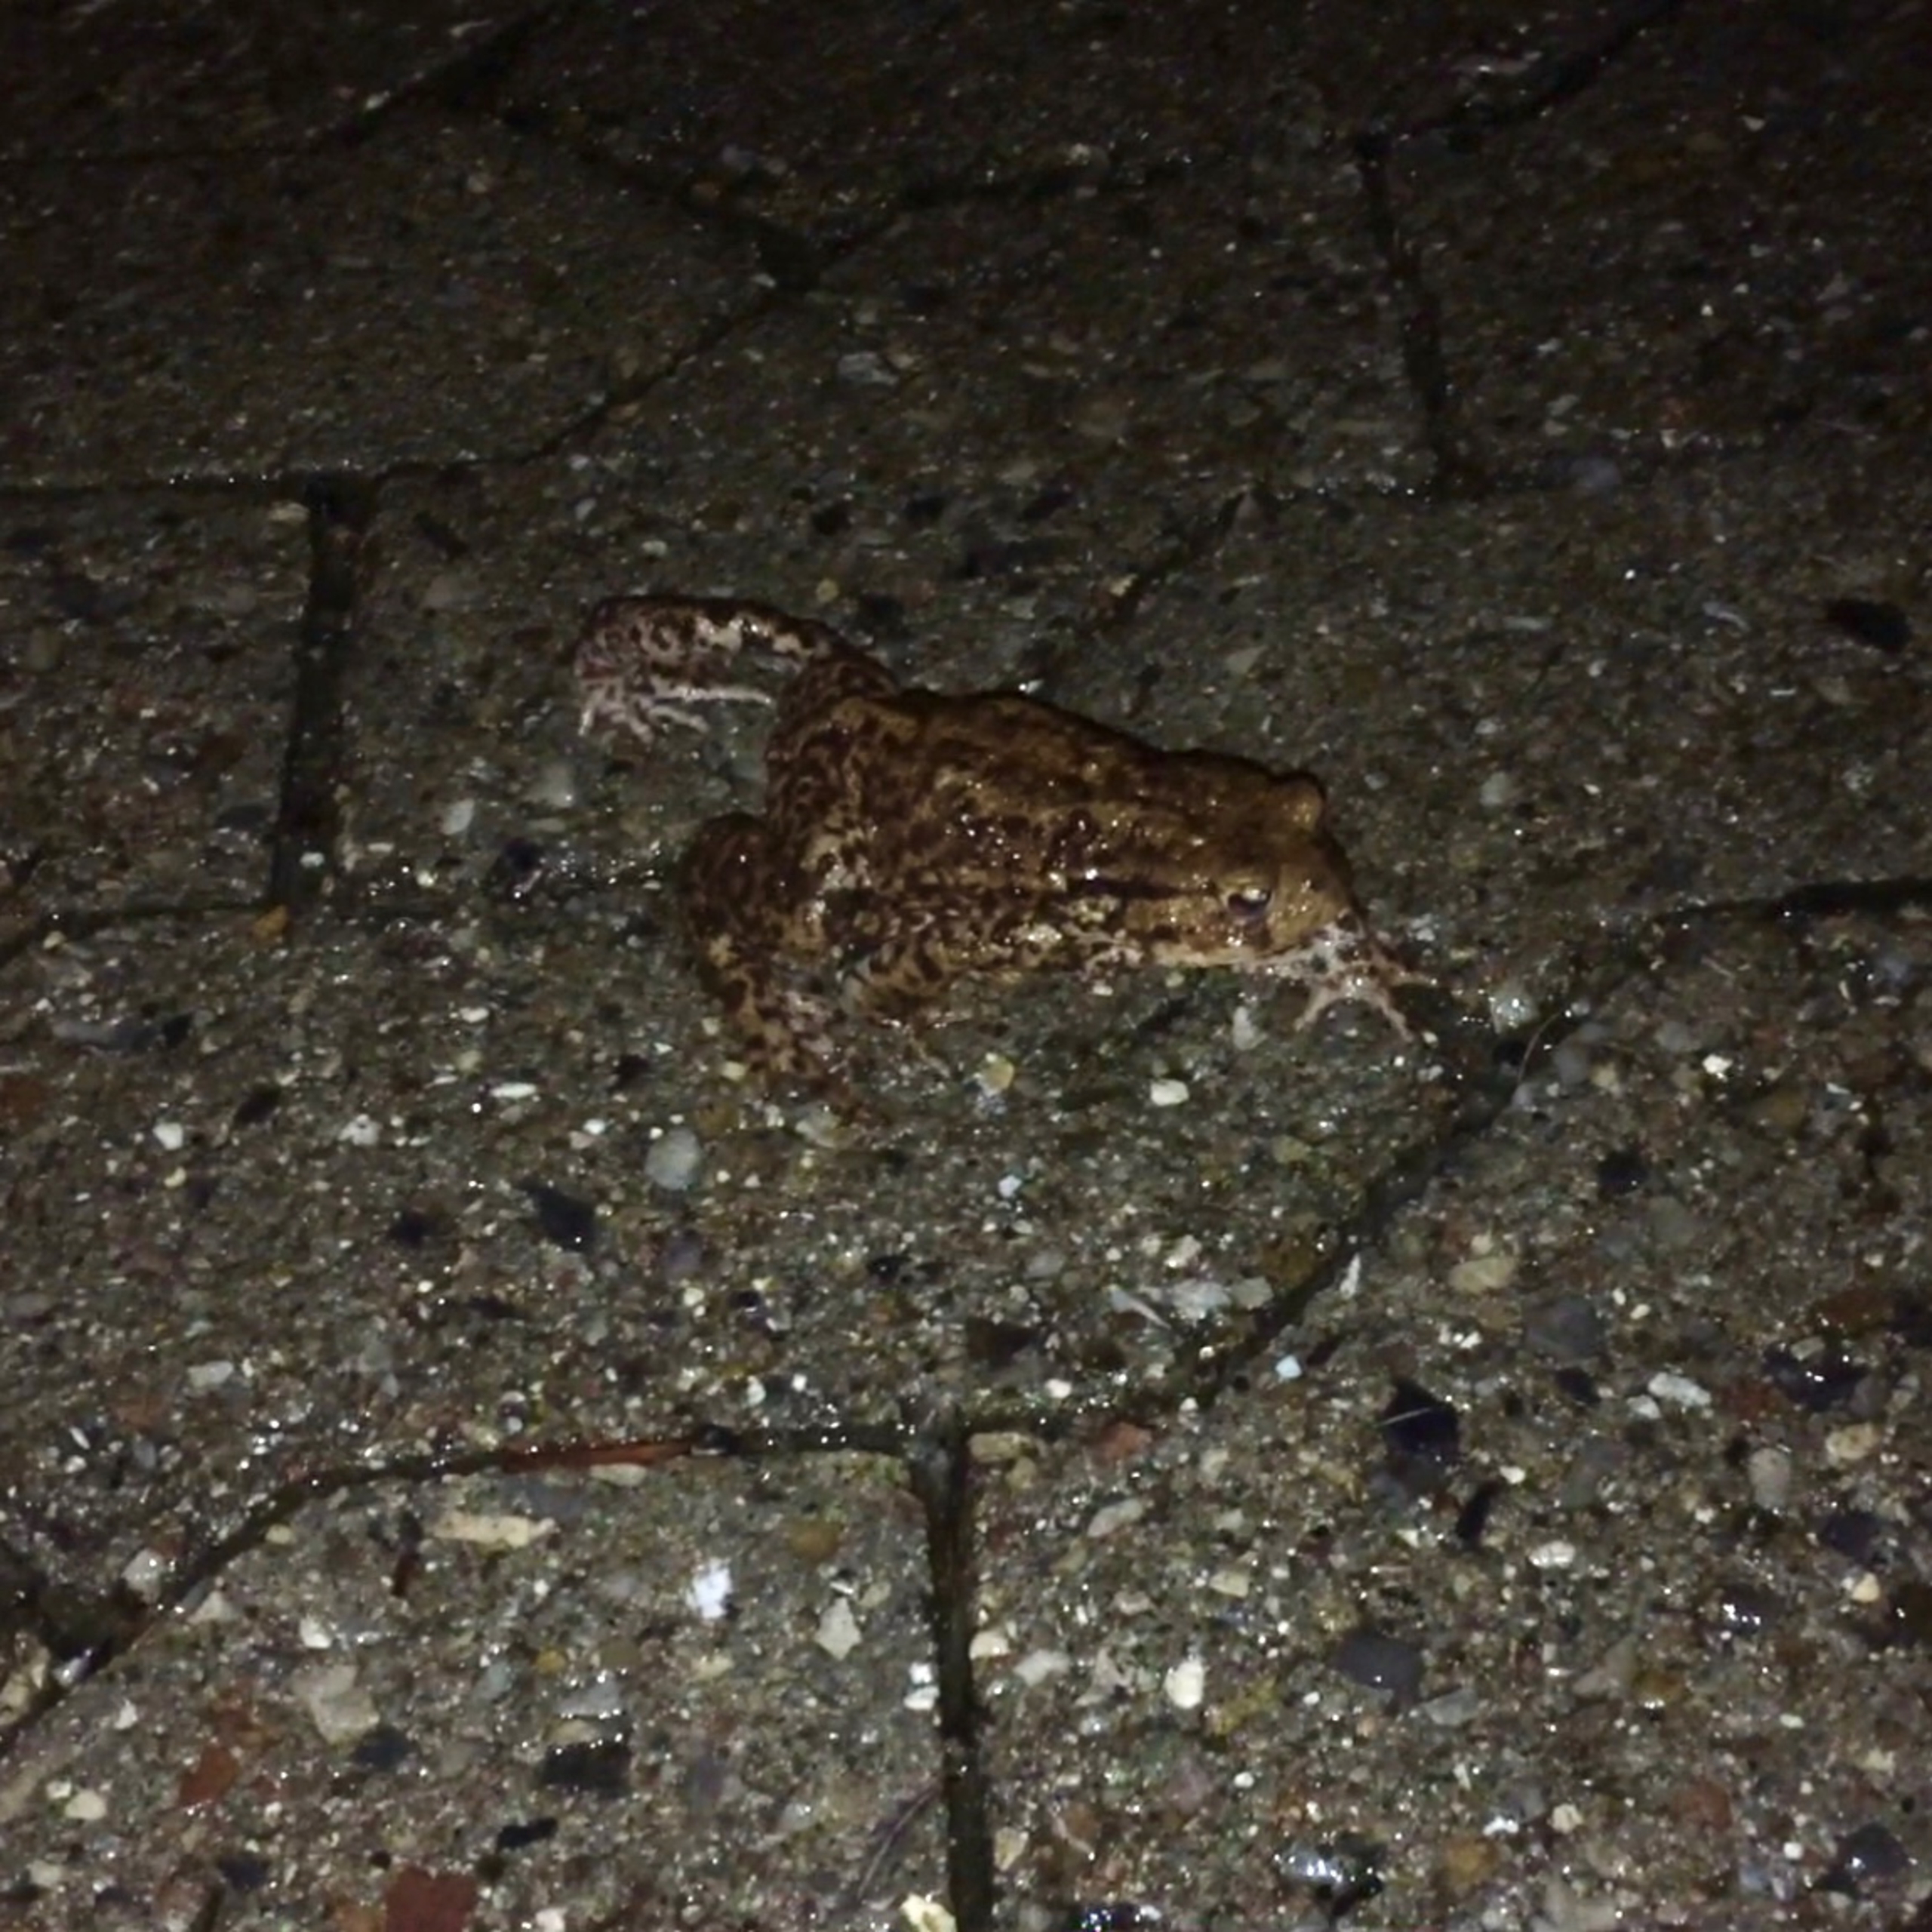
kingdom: Animalia
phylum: Chordata
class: Amphibia
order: Anura
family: Bufonidae
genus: Bufo
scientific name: Bufo bufo
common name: Skrubtudse
